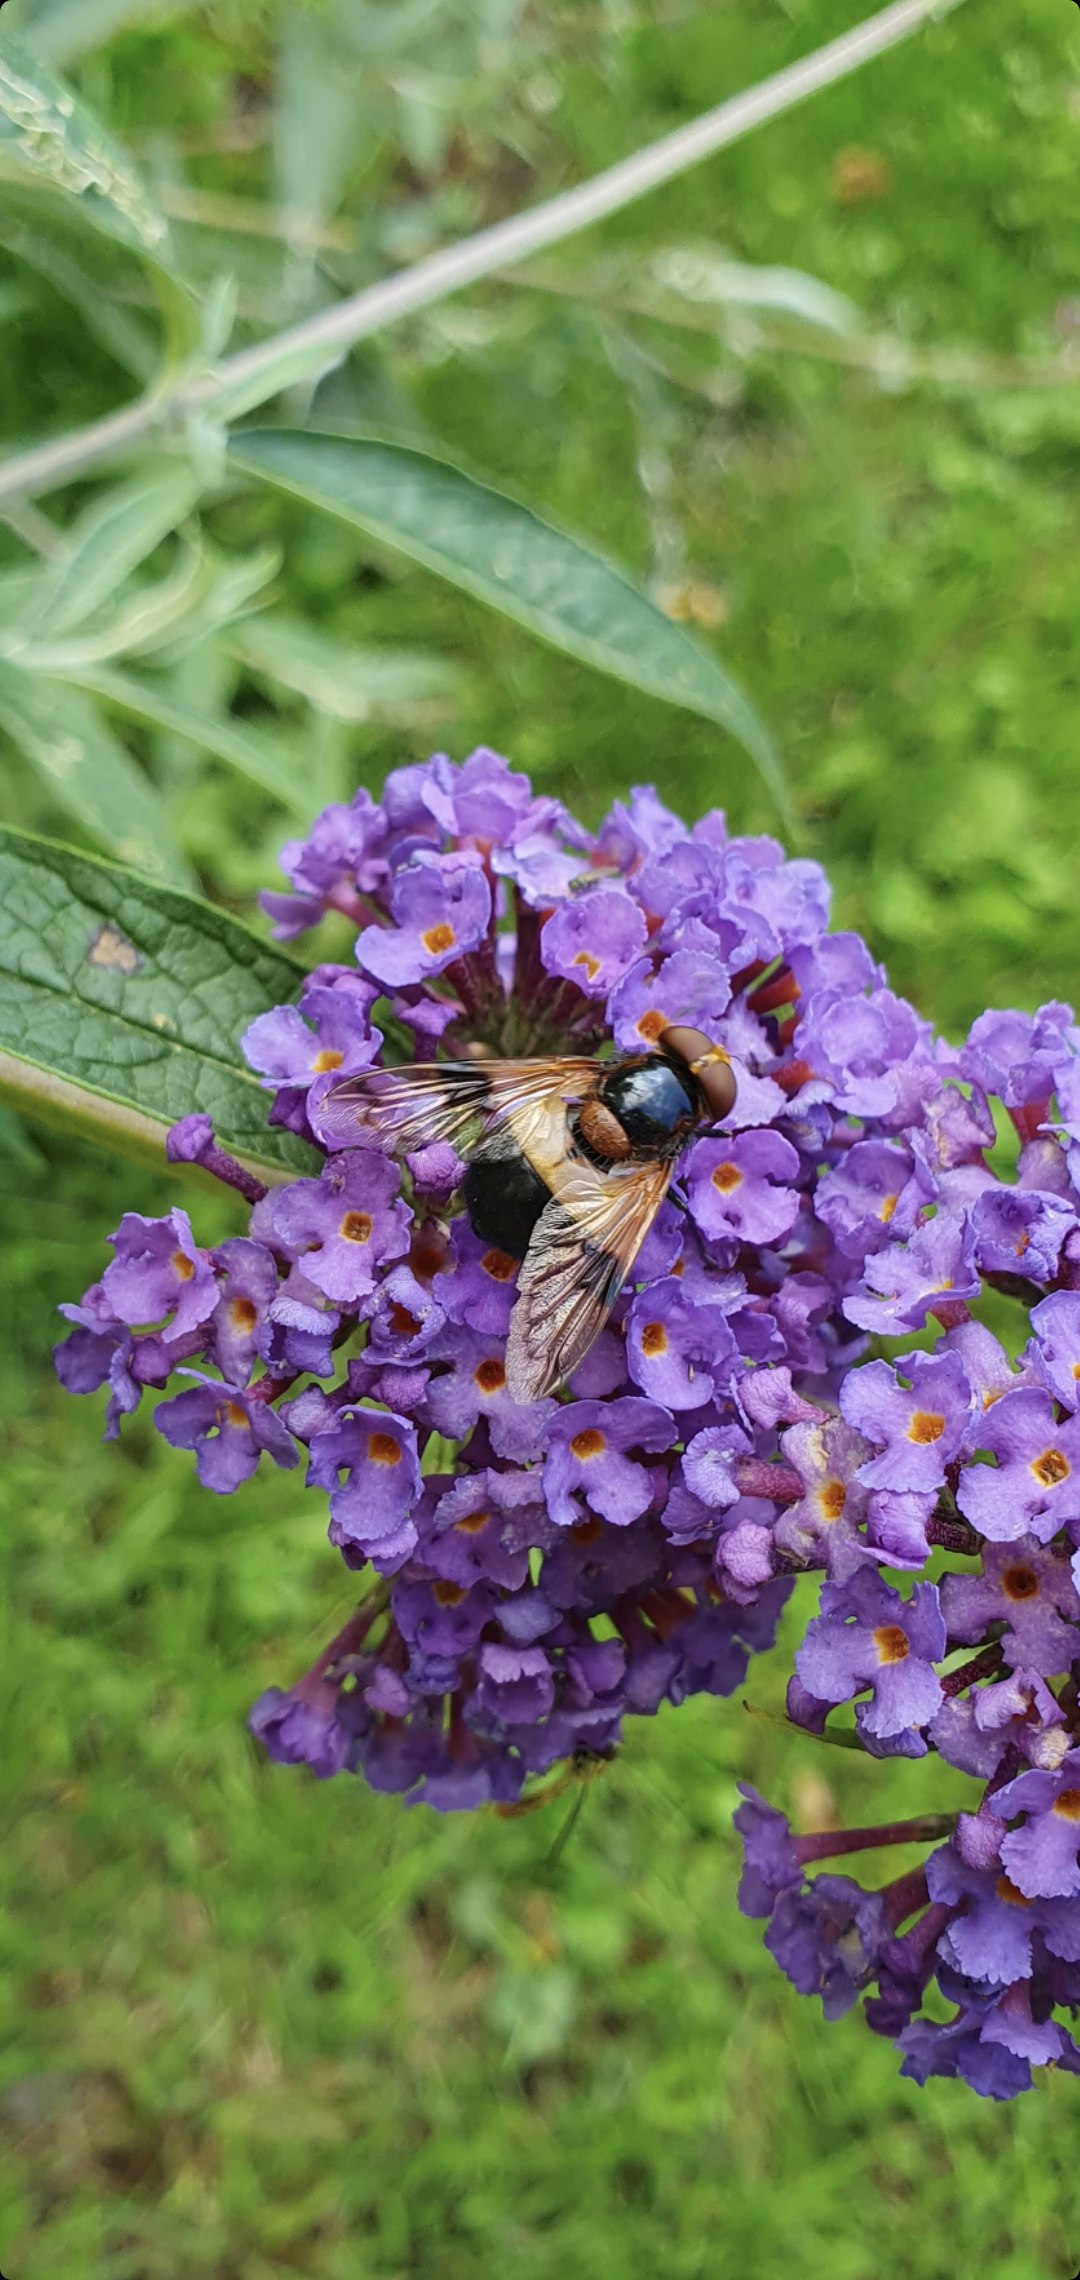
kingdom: Animalia
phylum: Arthropoda
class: Insecta
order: Diptera
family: Syrphidae
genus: Volucella
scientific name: Volucella pellucens
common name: Hvidbåndet humlesvirreflue
